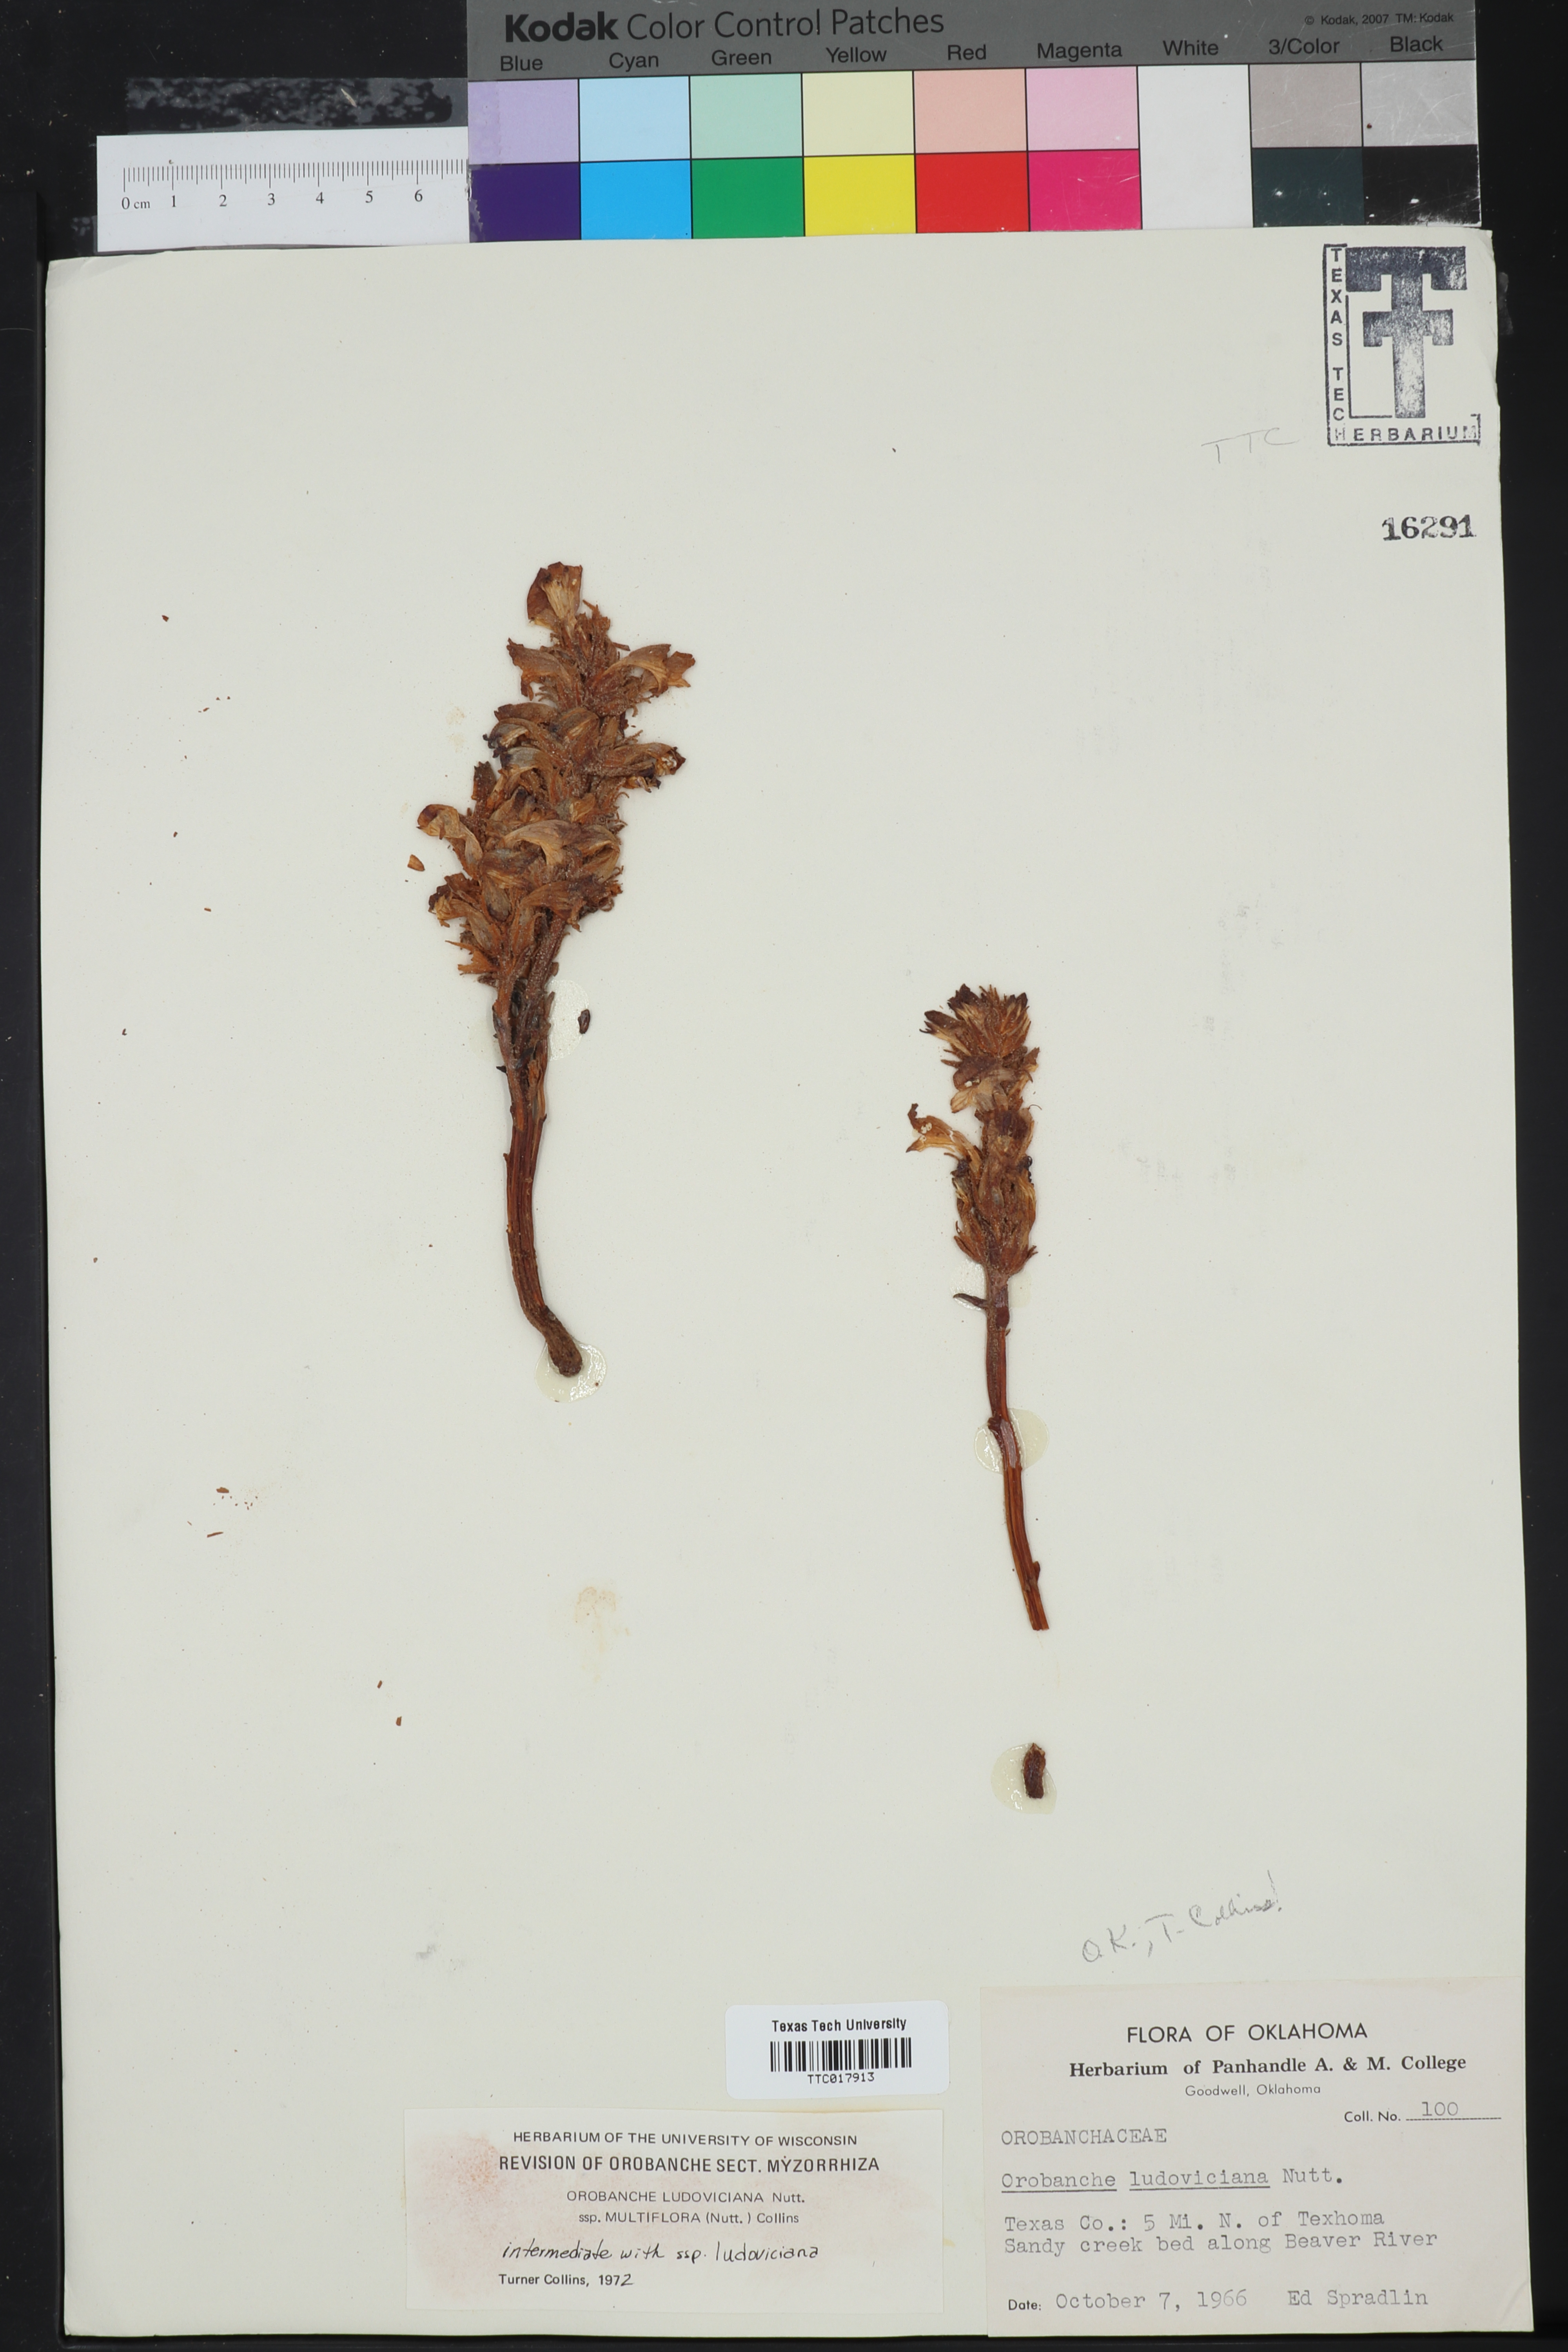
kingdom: Plantae
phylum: Tracheophyta
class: Magnoliopsida
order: Lamiales
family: Orobanchaceae
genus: Aphyllon
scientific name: Aphyllon multiflorum
